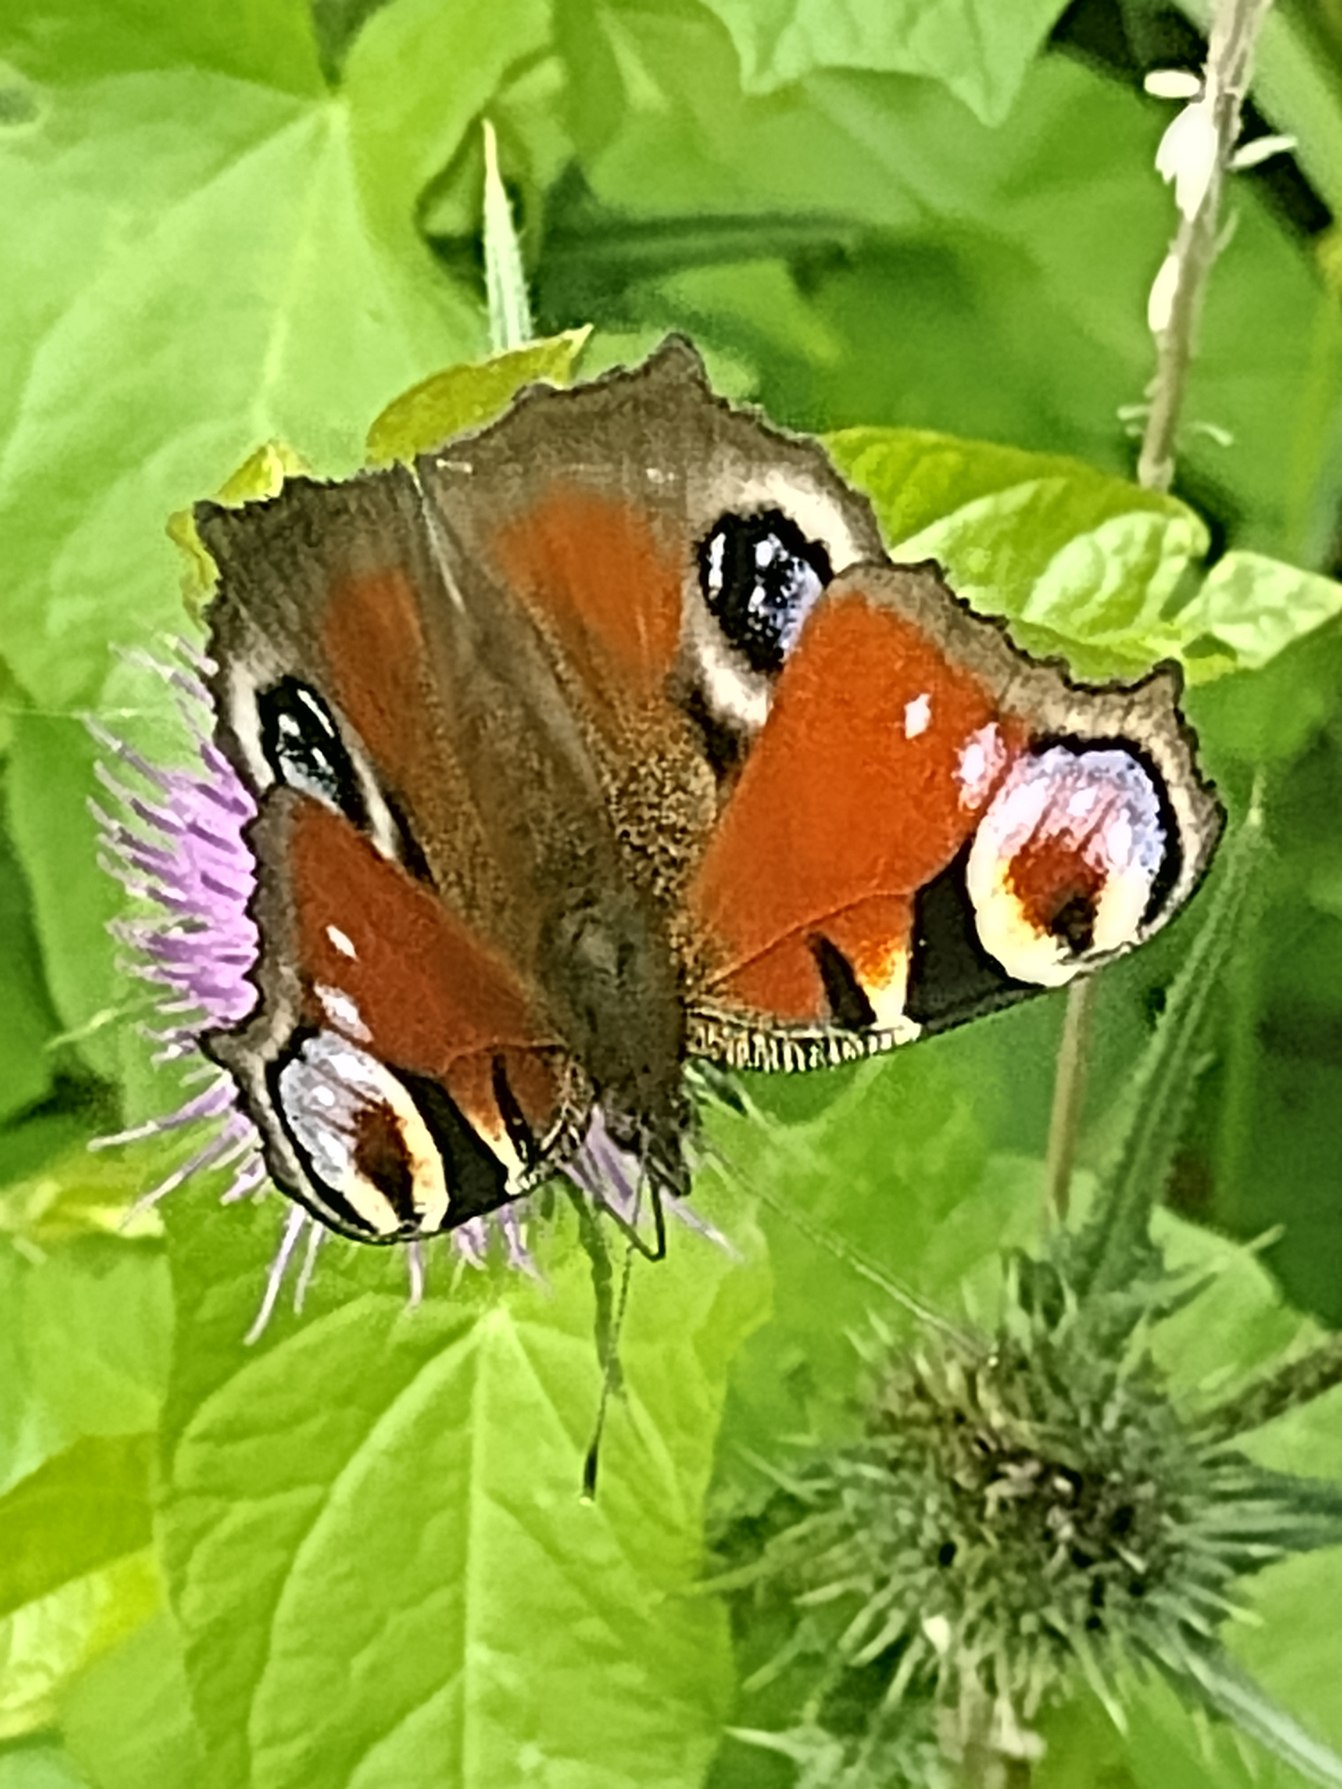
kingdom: Animalia
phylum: Arthropoda
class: Insecta
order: Lepidoptera
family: Nymphalidae
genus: Aglais
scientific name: Aglais io
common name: Dagpåfugleøje
